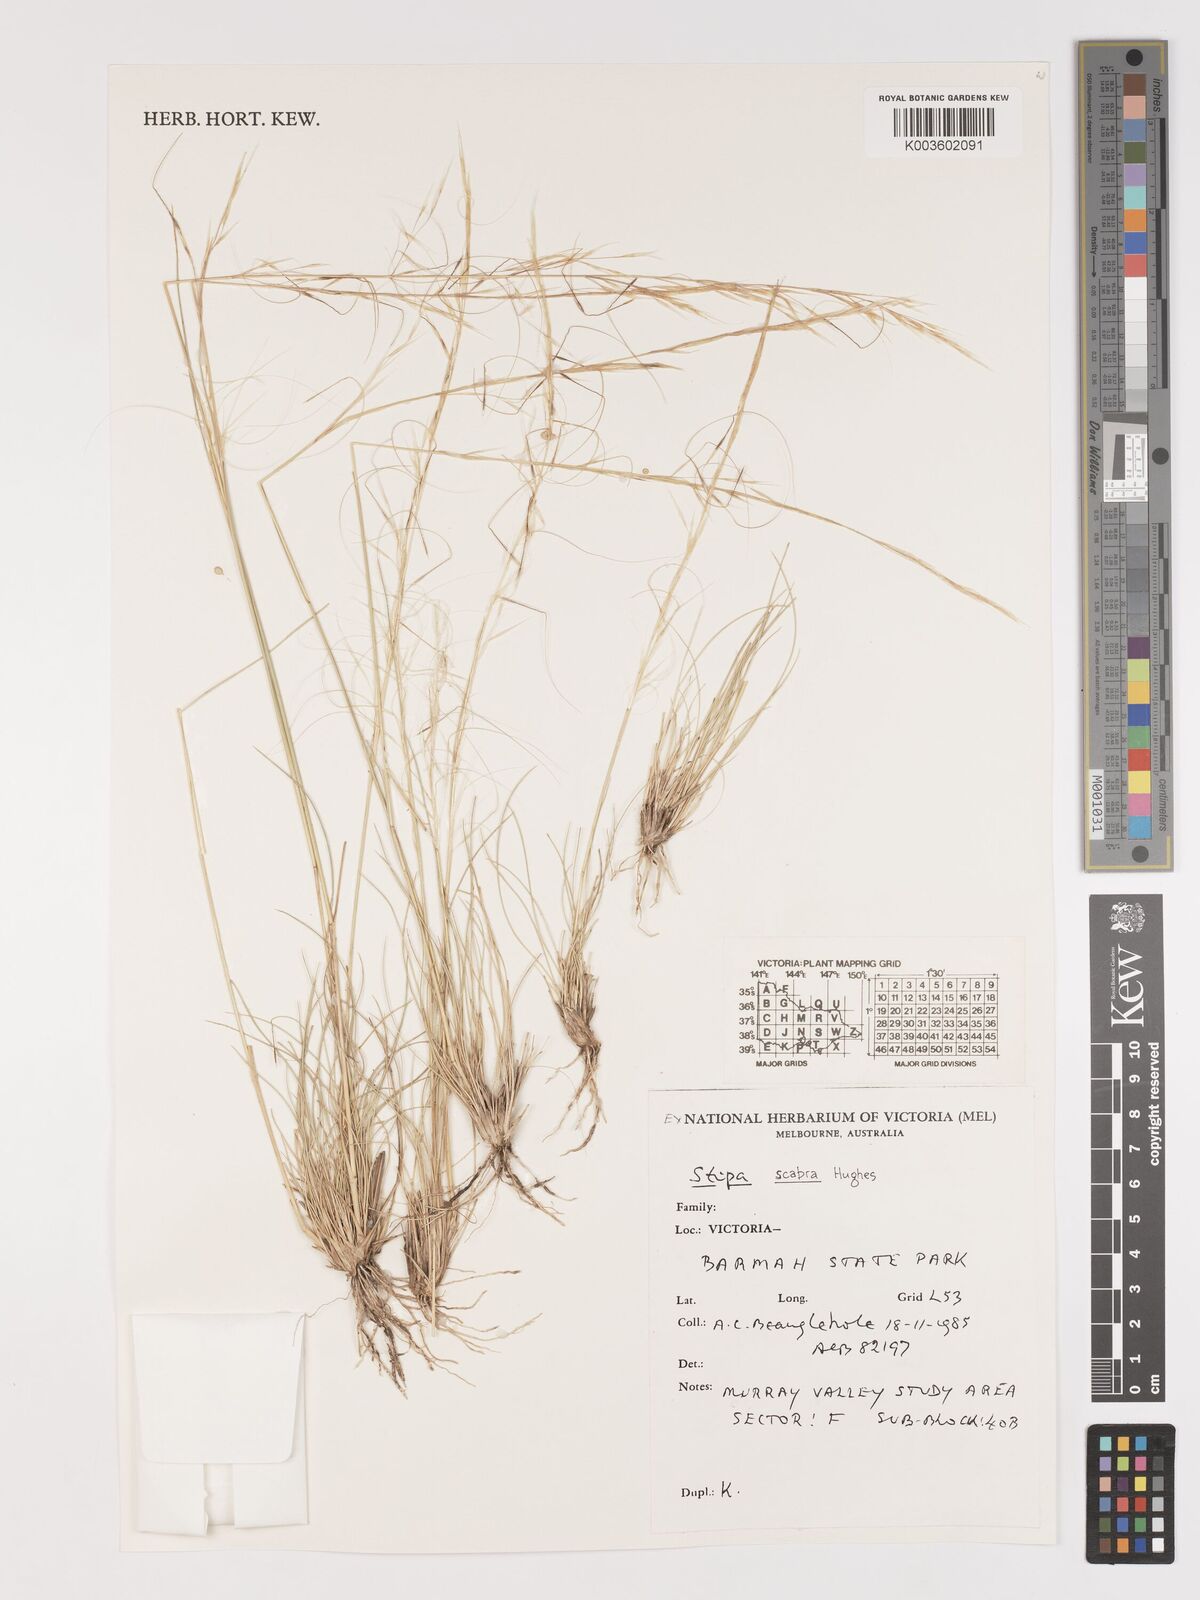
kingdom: Plantae
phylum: Tracheophyta
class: Liliopsida
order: Poales
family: Poaceae
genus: Austrostipa
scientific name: Austrostipa scabra
